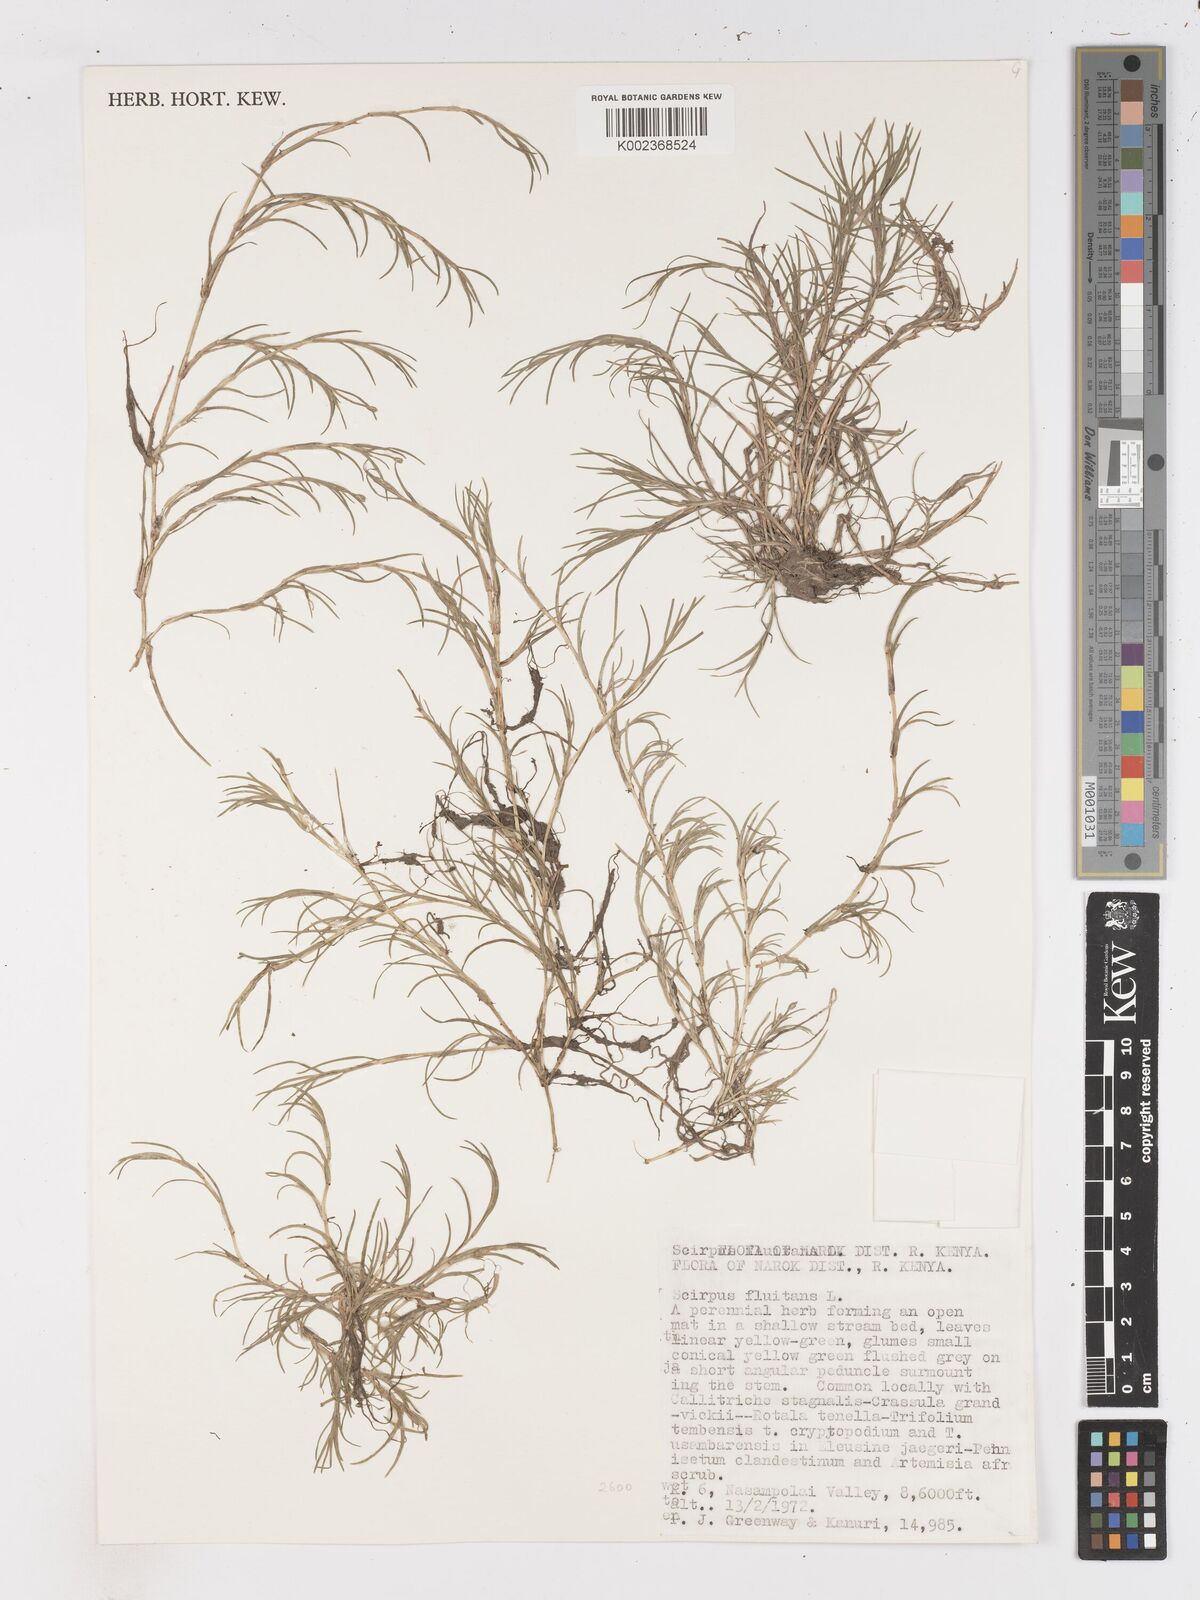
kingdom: Plantae
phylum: Tracheophyta
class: Liliopsida
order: Poales
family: Cyperaceae
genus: Isolepis
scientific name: Isolepis fluitans
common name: Floating club-rush
